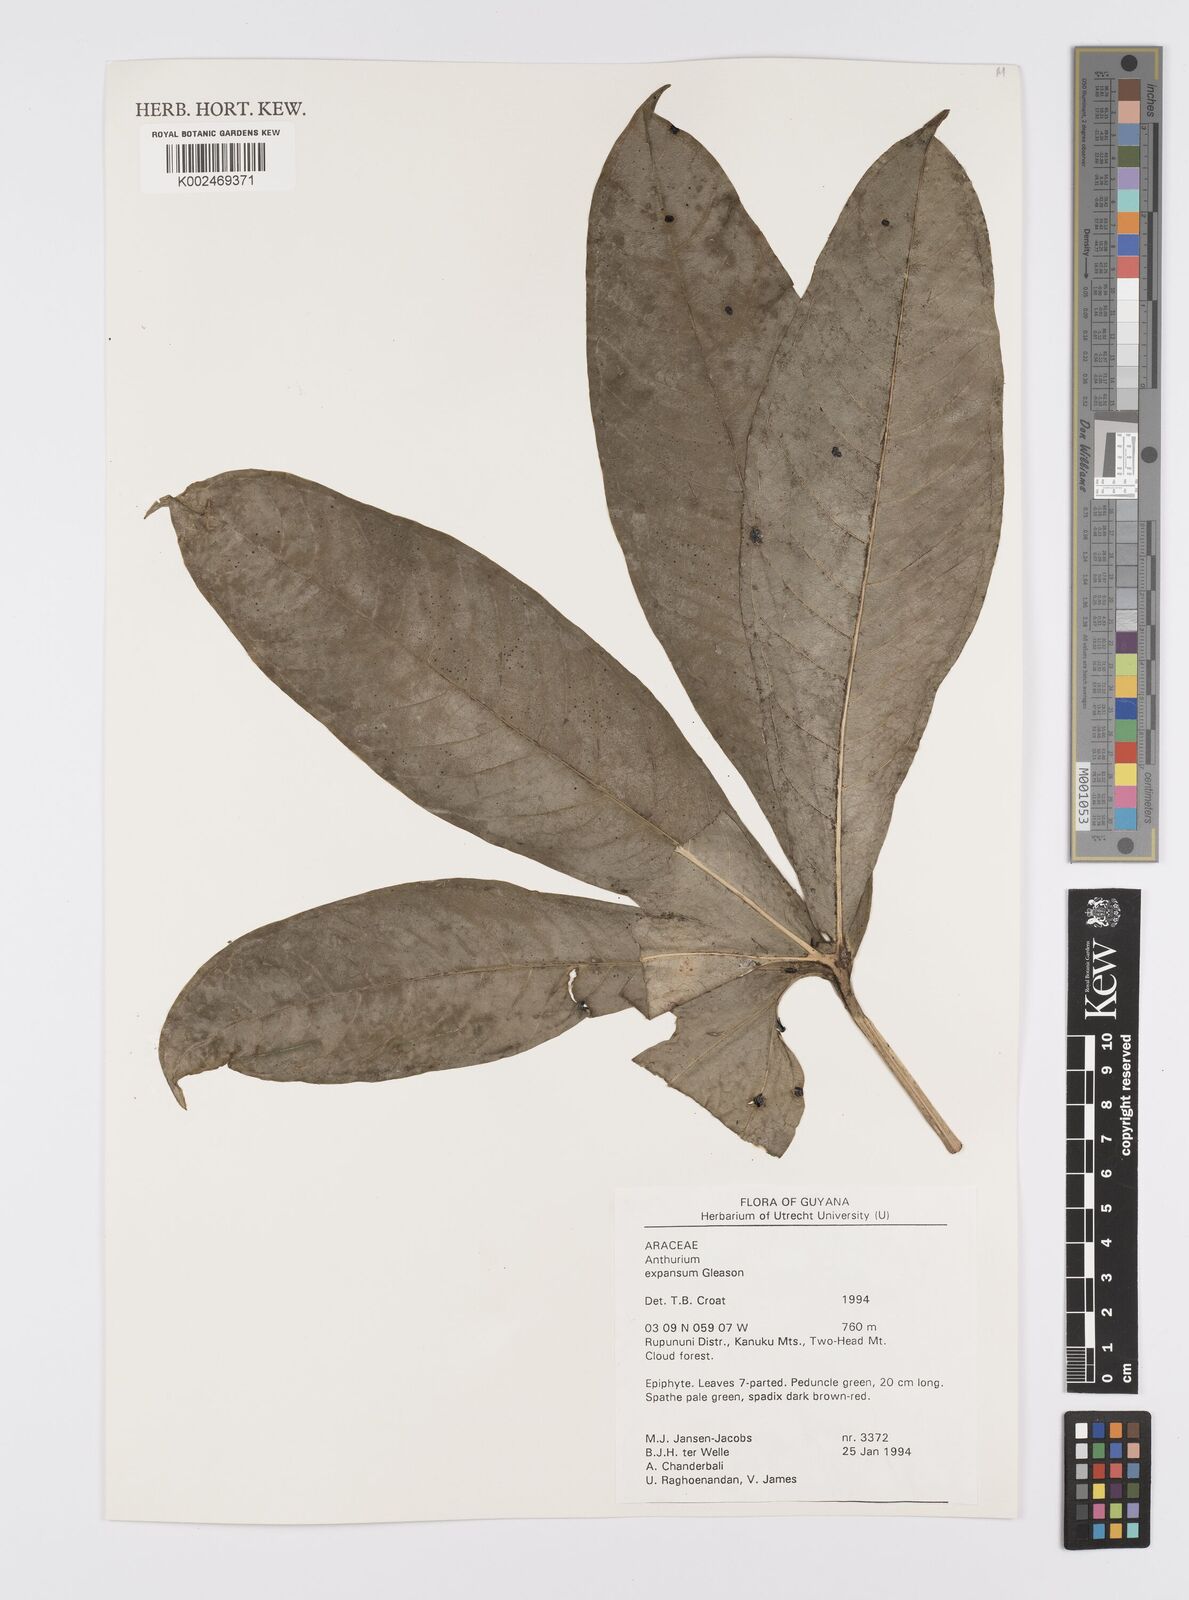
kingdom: Plantae
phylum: Tracheophyta
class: Liliopsida
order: Alismatales
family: Araceae
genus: Anthurium
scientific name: Anthurium expansum
